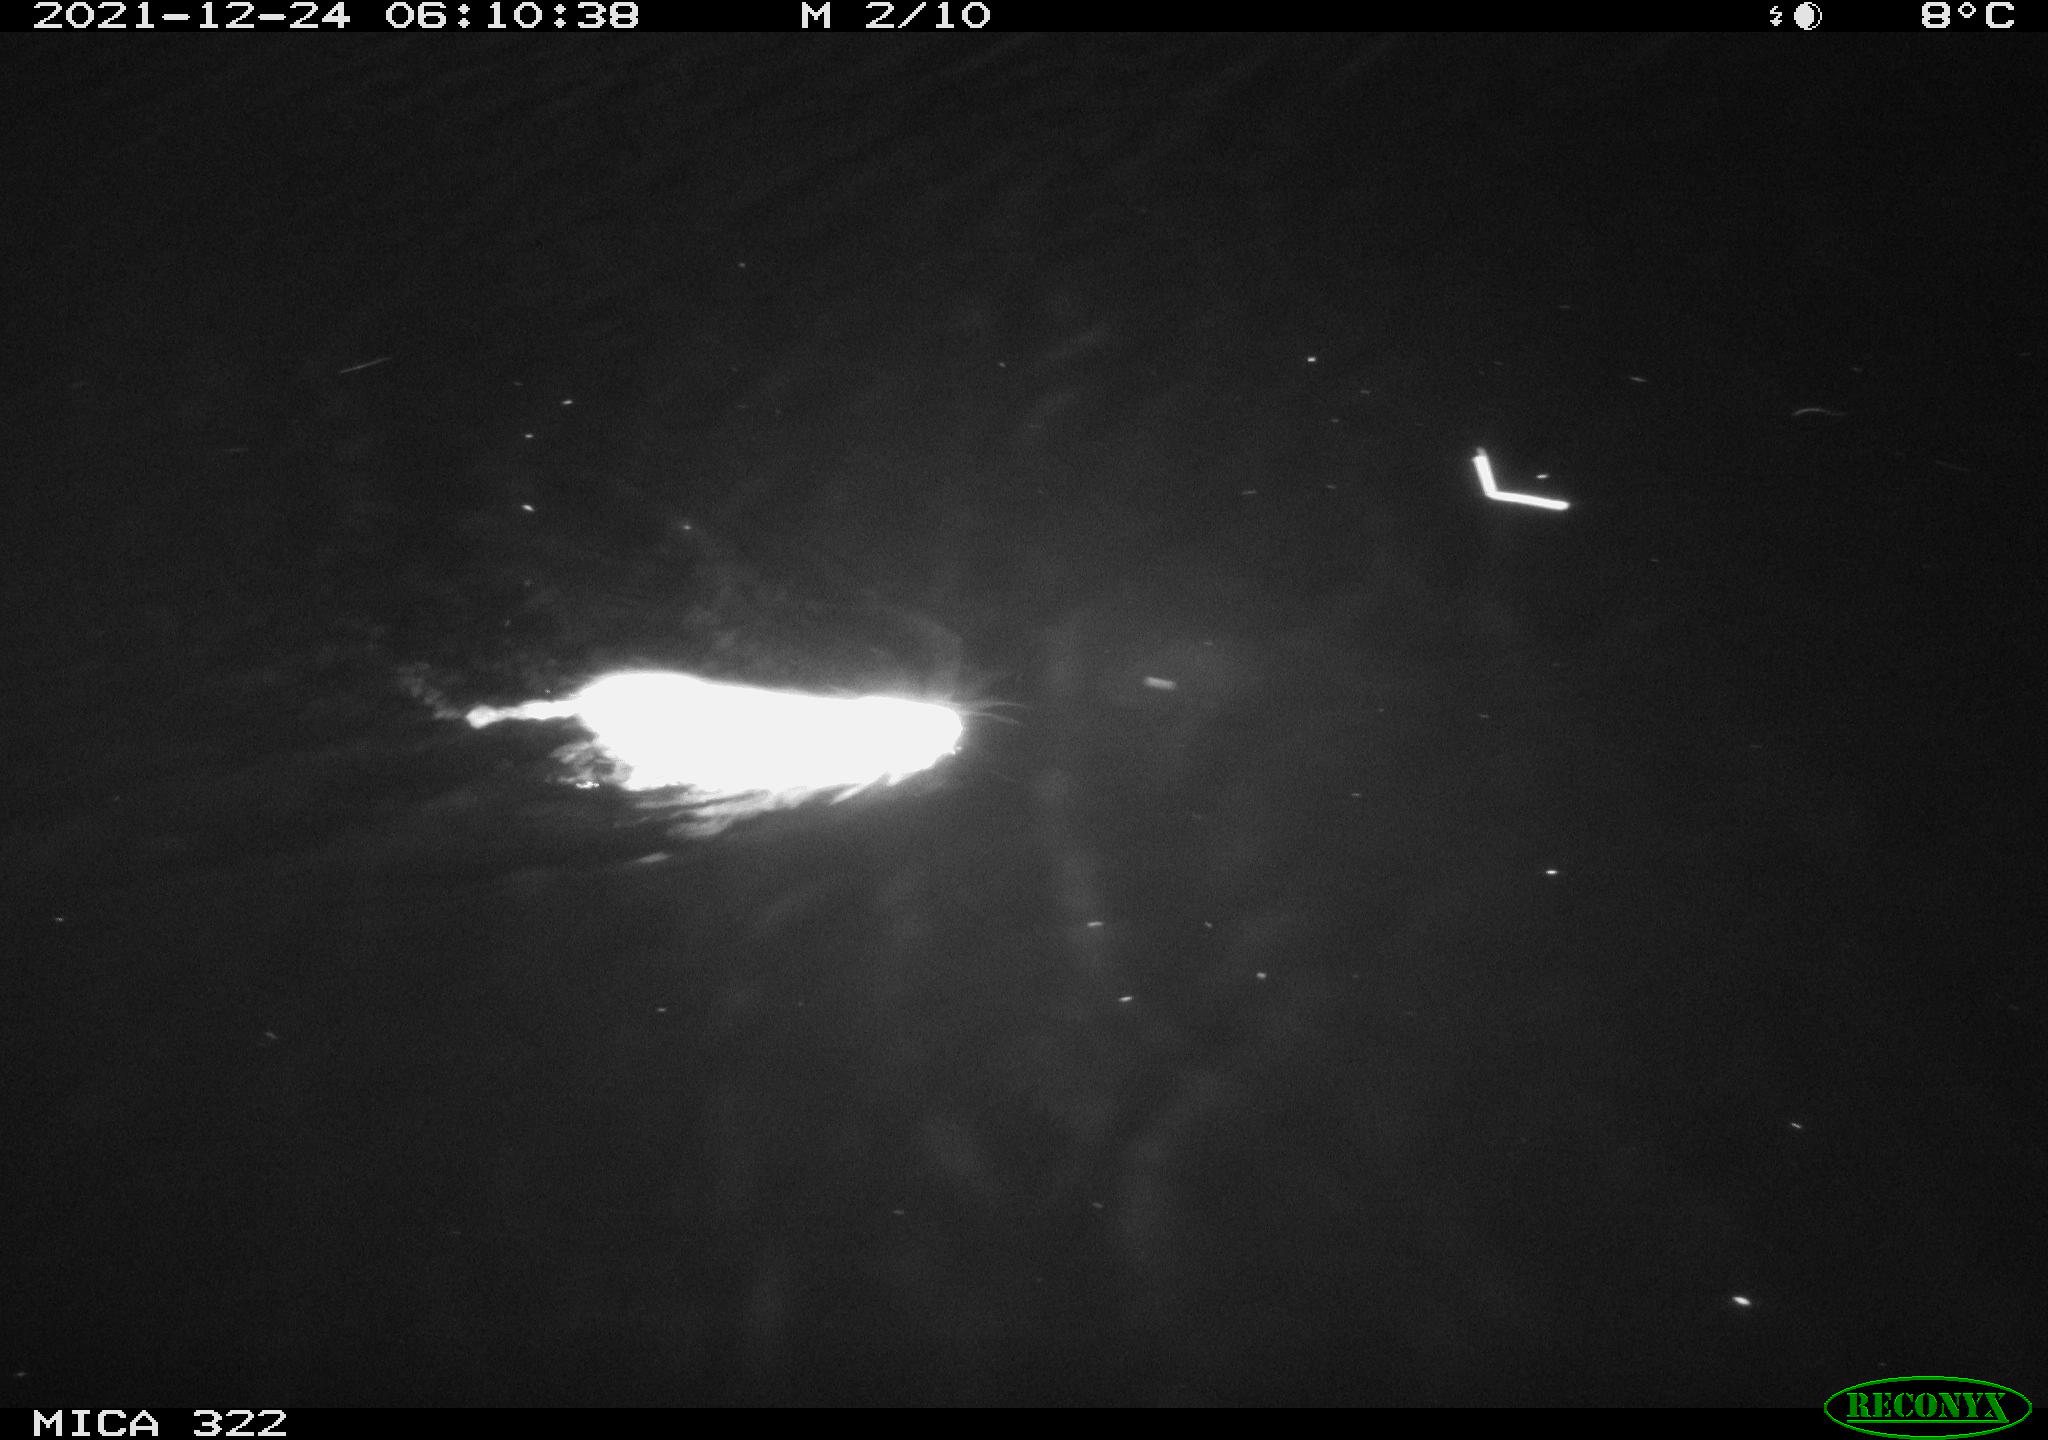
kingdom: Animalia
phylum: Chordata
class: Mammalia
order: Rodentia
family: Muridae
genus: Rattus
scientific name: Rattus norvegicus
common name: Brown rat
